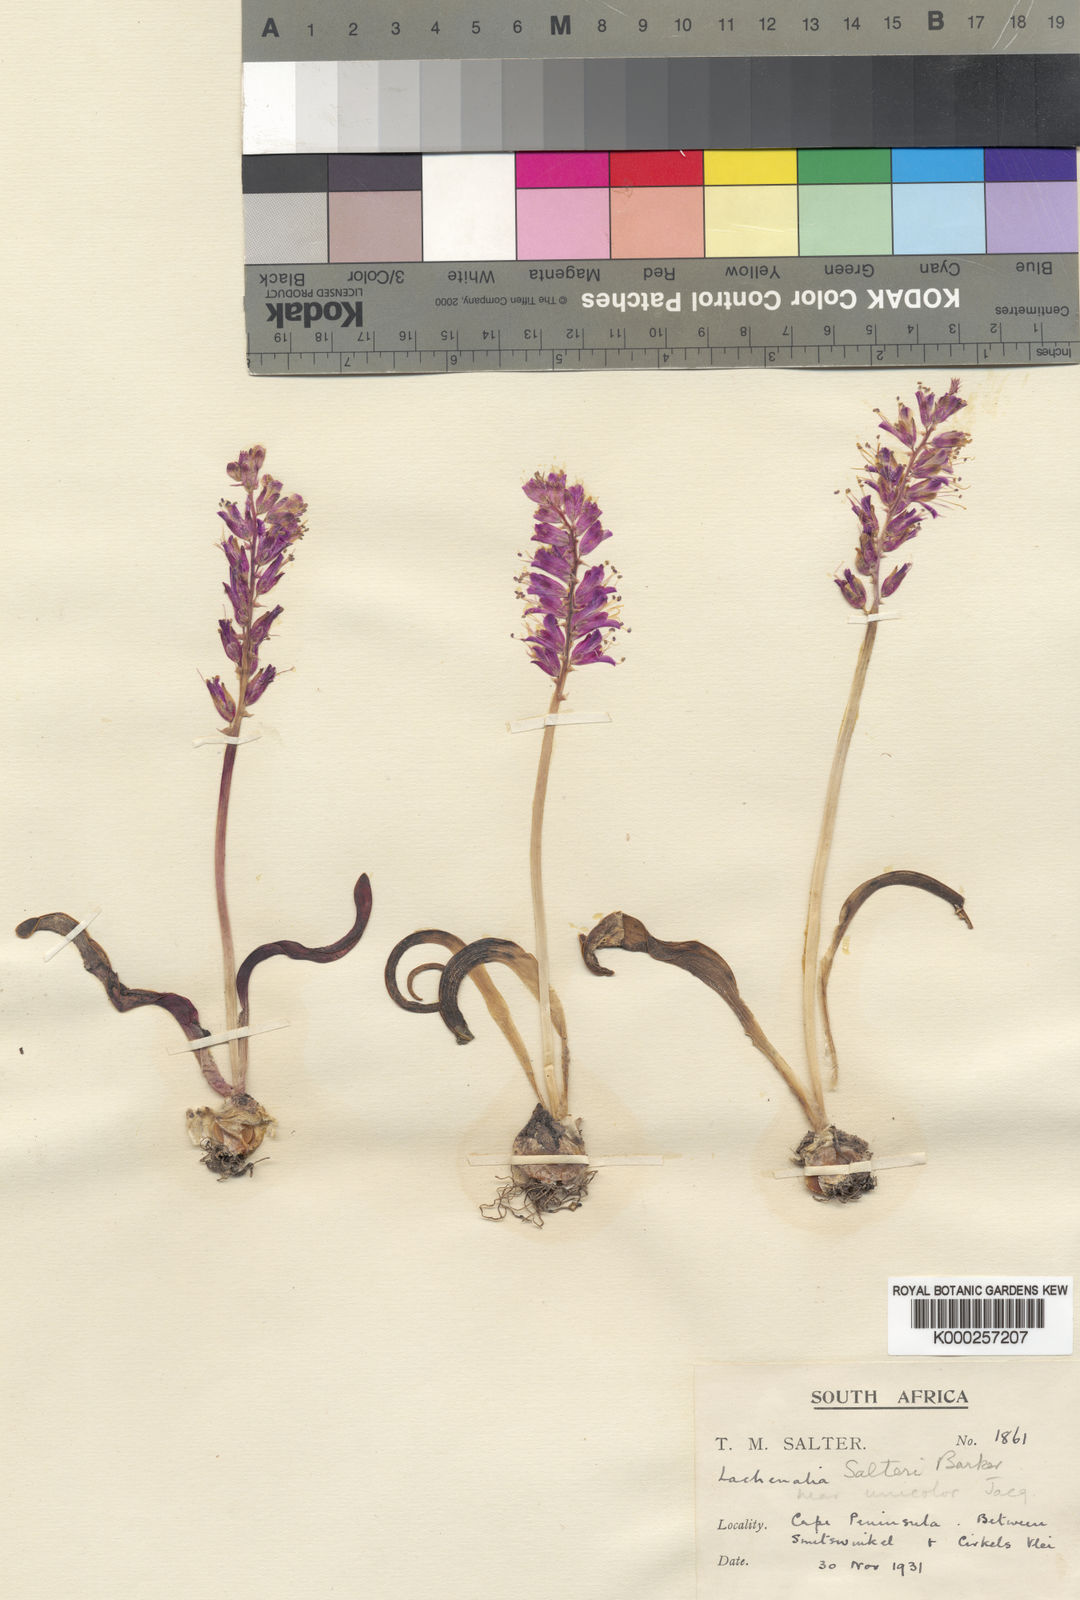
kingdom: Plantae
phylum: Tracheophyta
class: Liliopsida
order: Asparagales
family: Asparagaceae
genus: Lachenalia
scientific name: Lachenalia salteri
